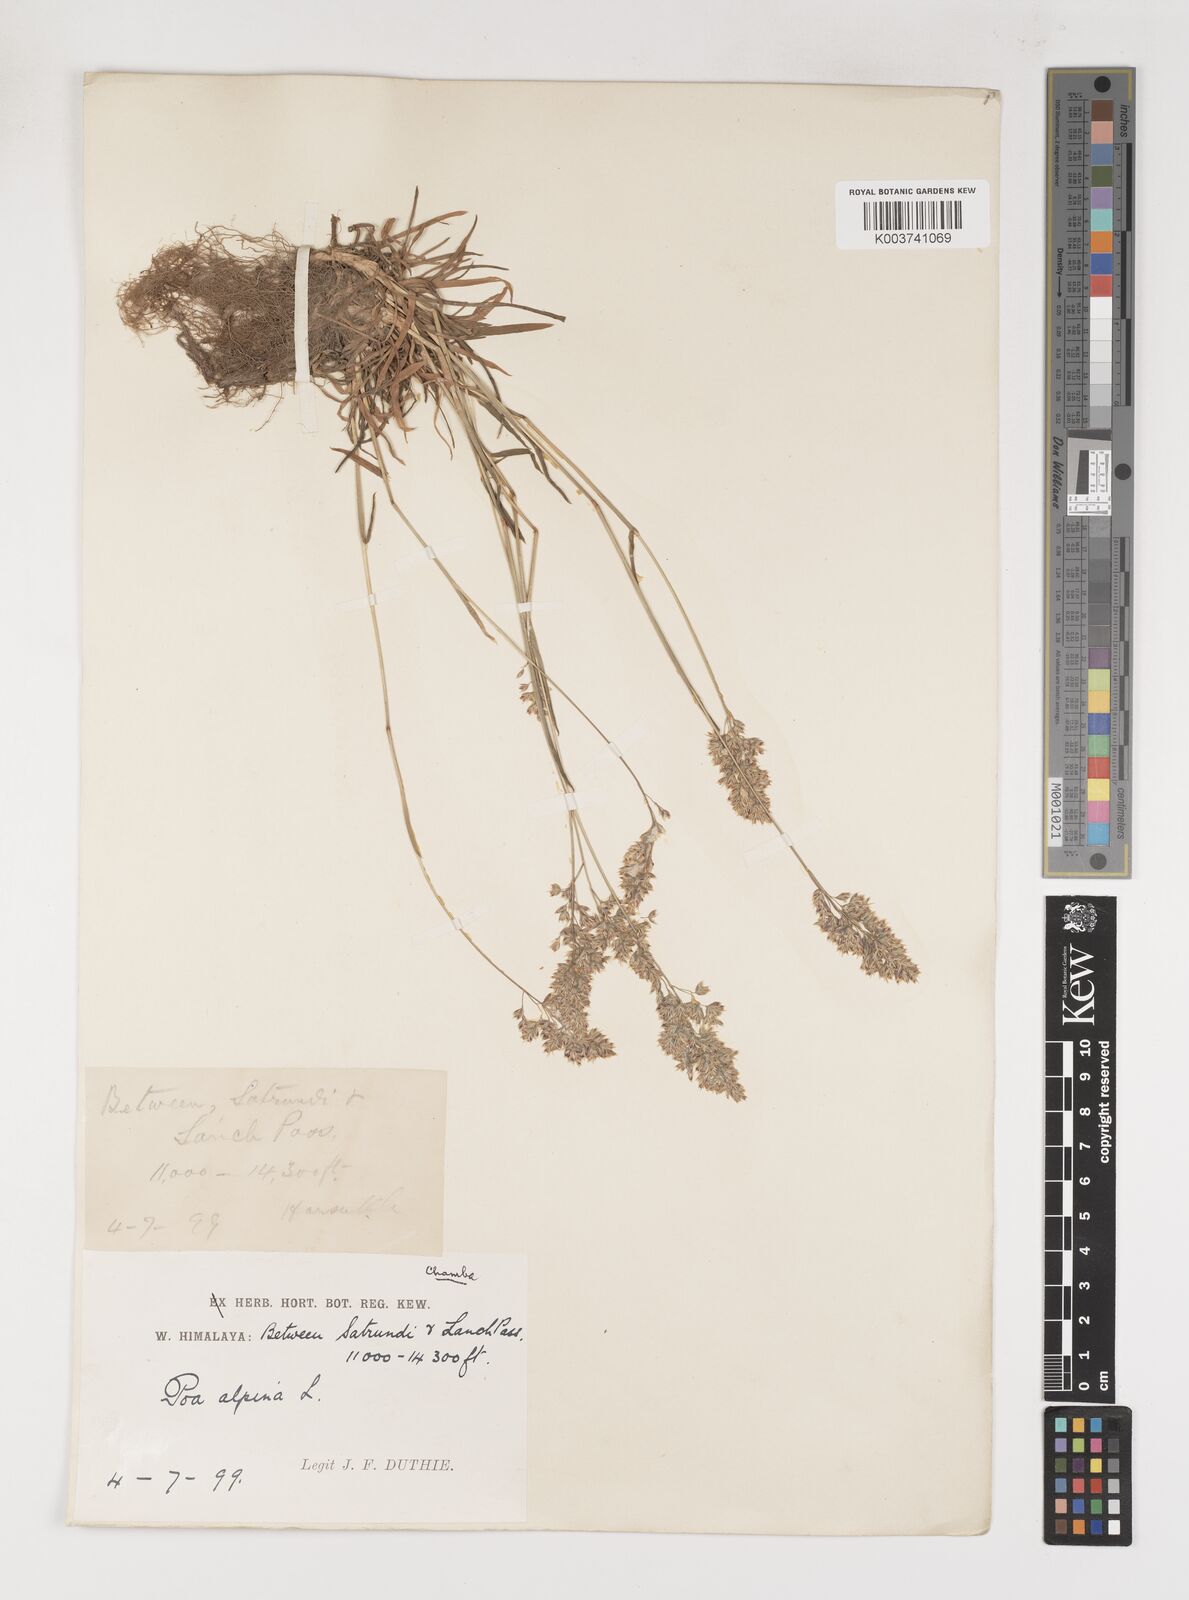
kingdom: Plantae
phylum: Tracheophyta
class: Liliopsida
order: Poales
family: Poaceae
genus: Poa
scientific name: Poa alpina
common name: Alpine bluegrass
